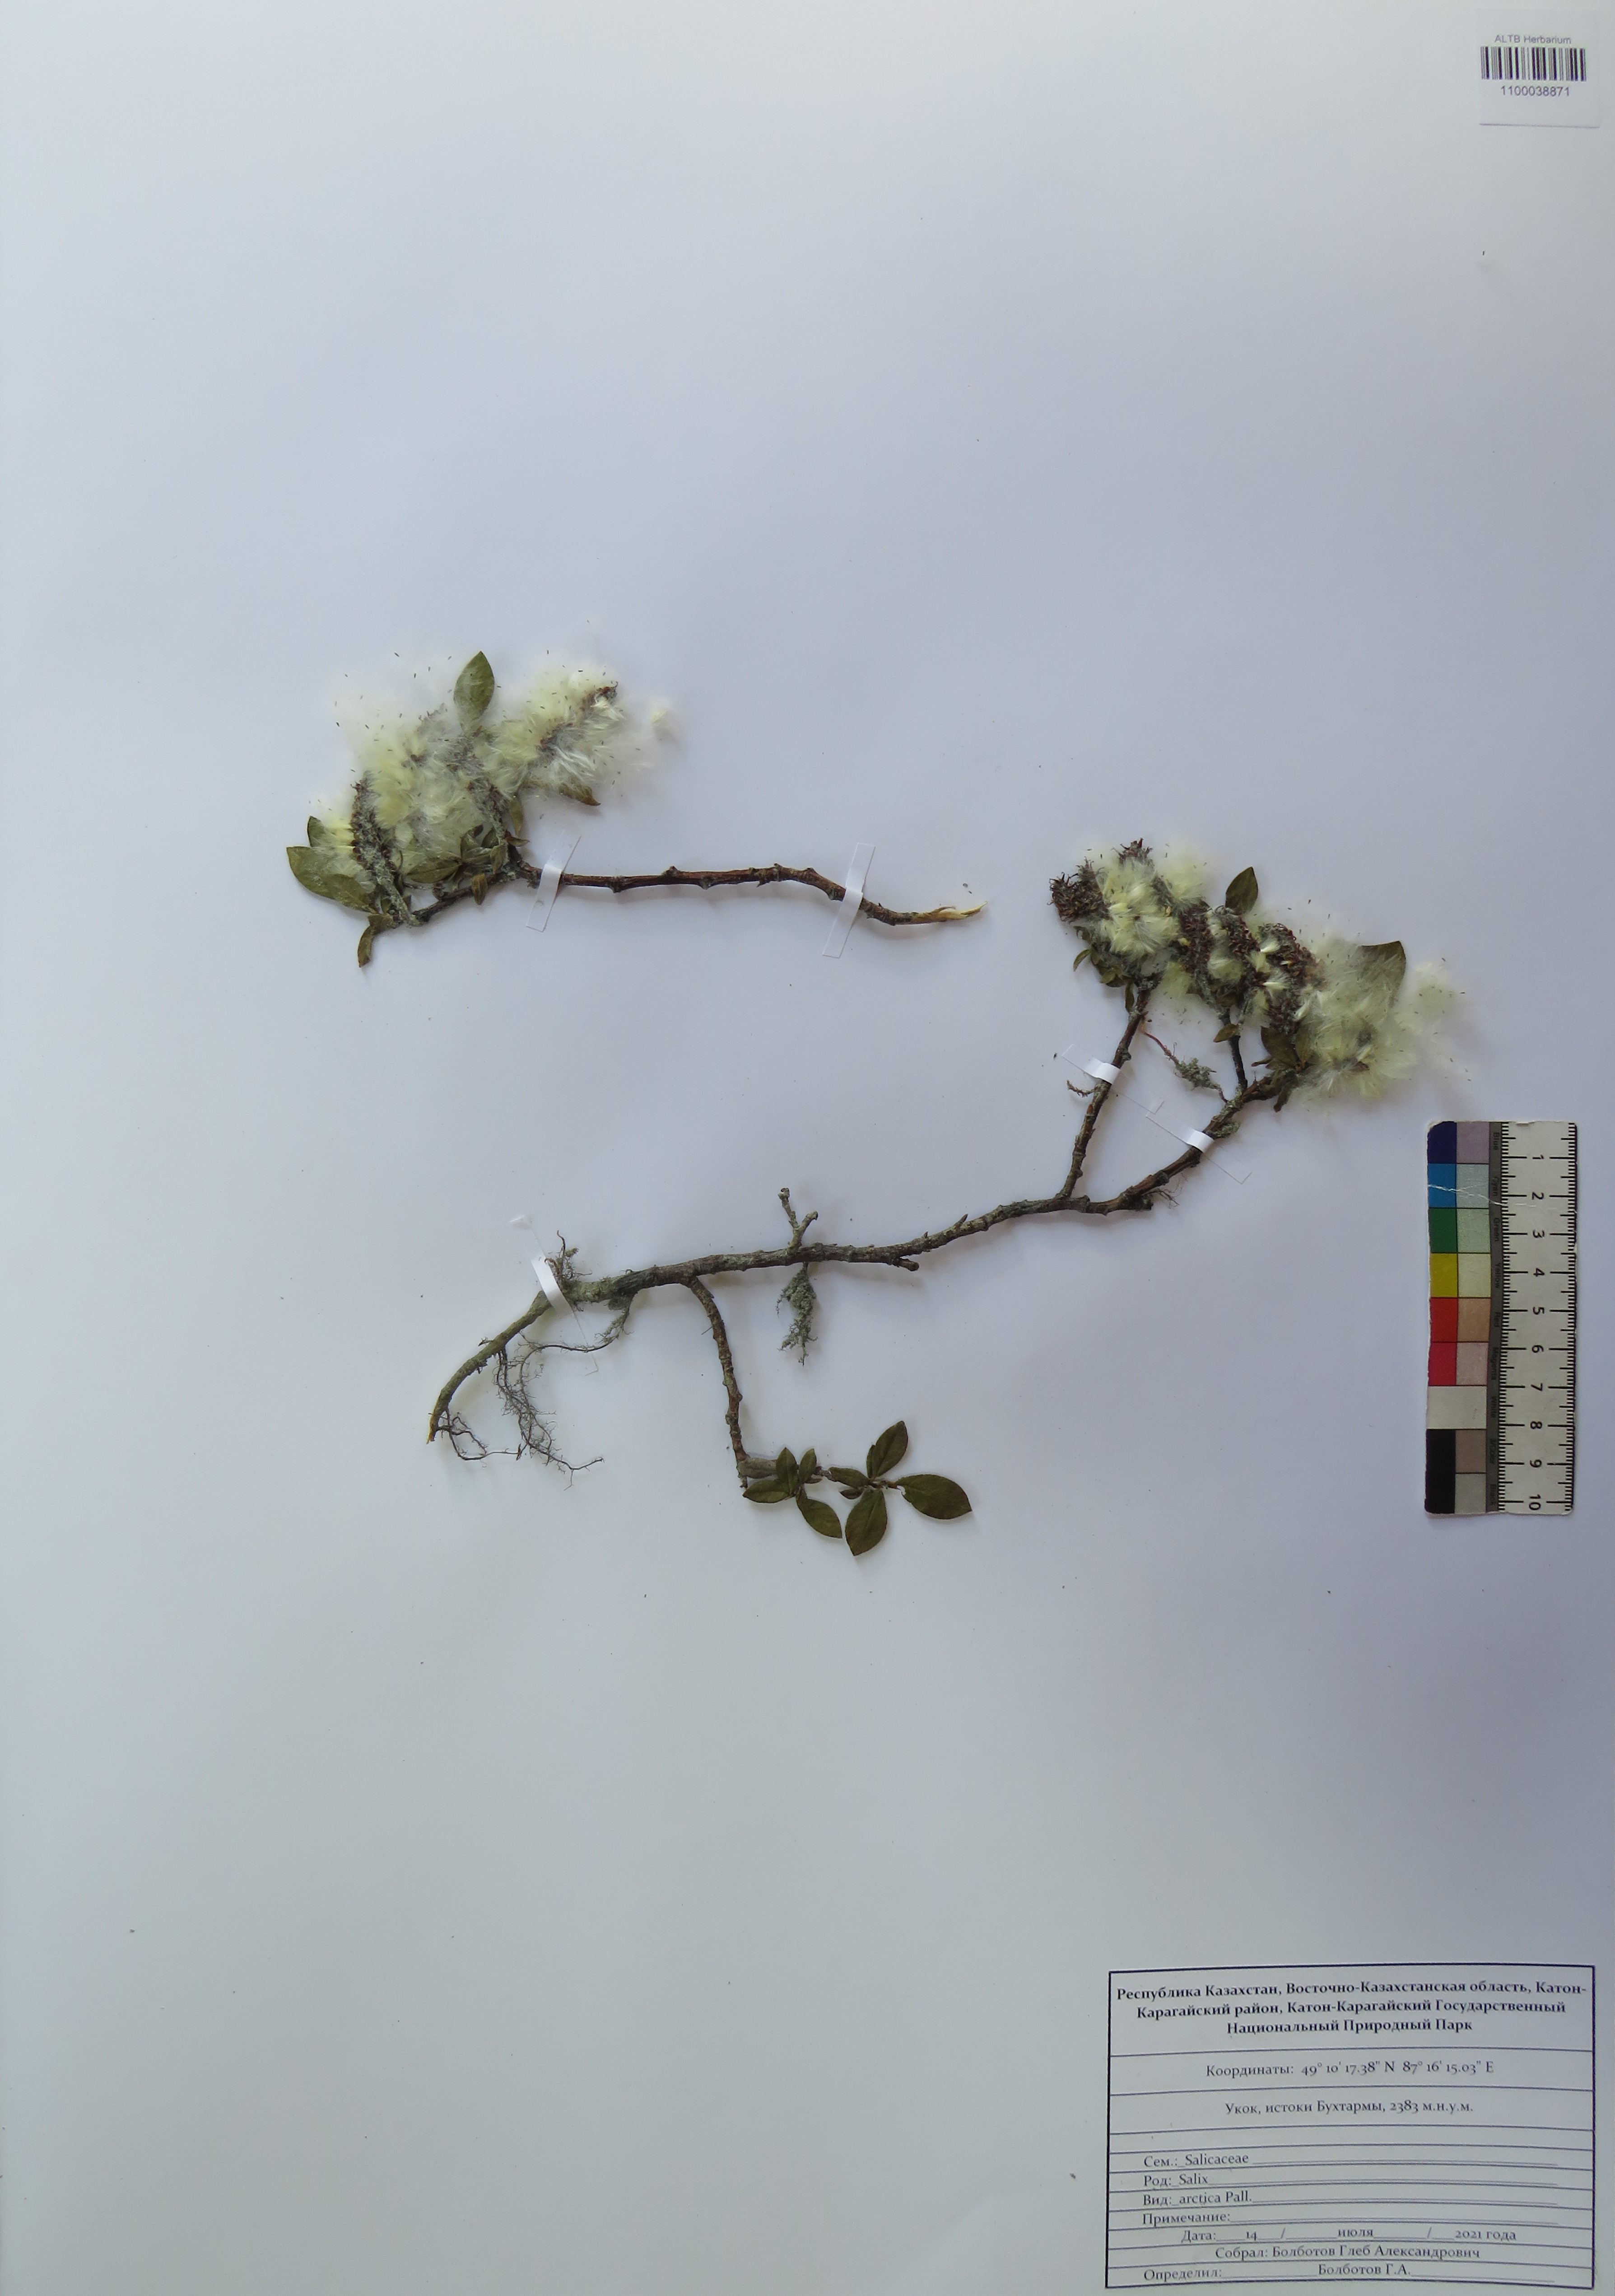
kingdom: Plantae
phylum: Tracheophyta
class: Magnoliopsida
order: Malpighiales
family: Salicaceae
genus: Salix
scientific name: Salix arctica
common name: Arctic willow
